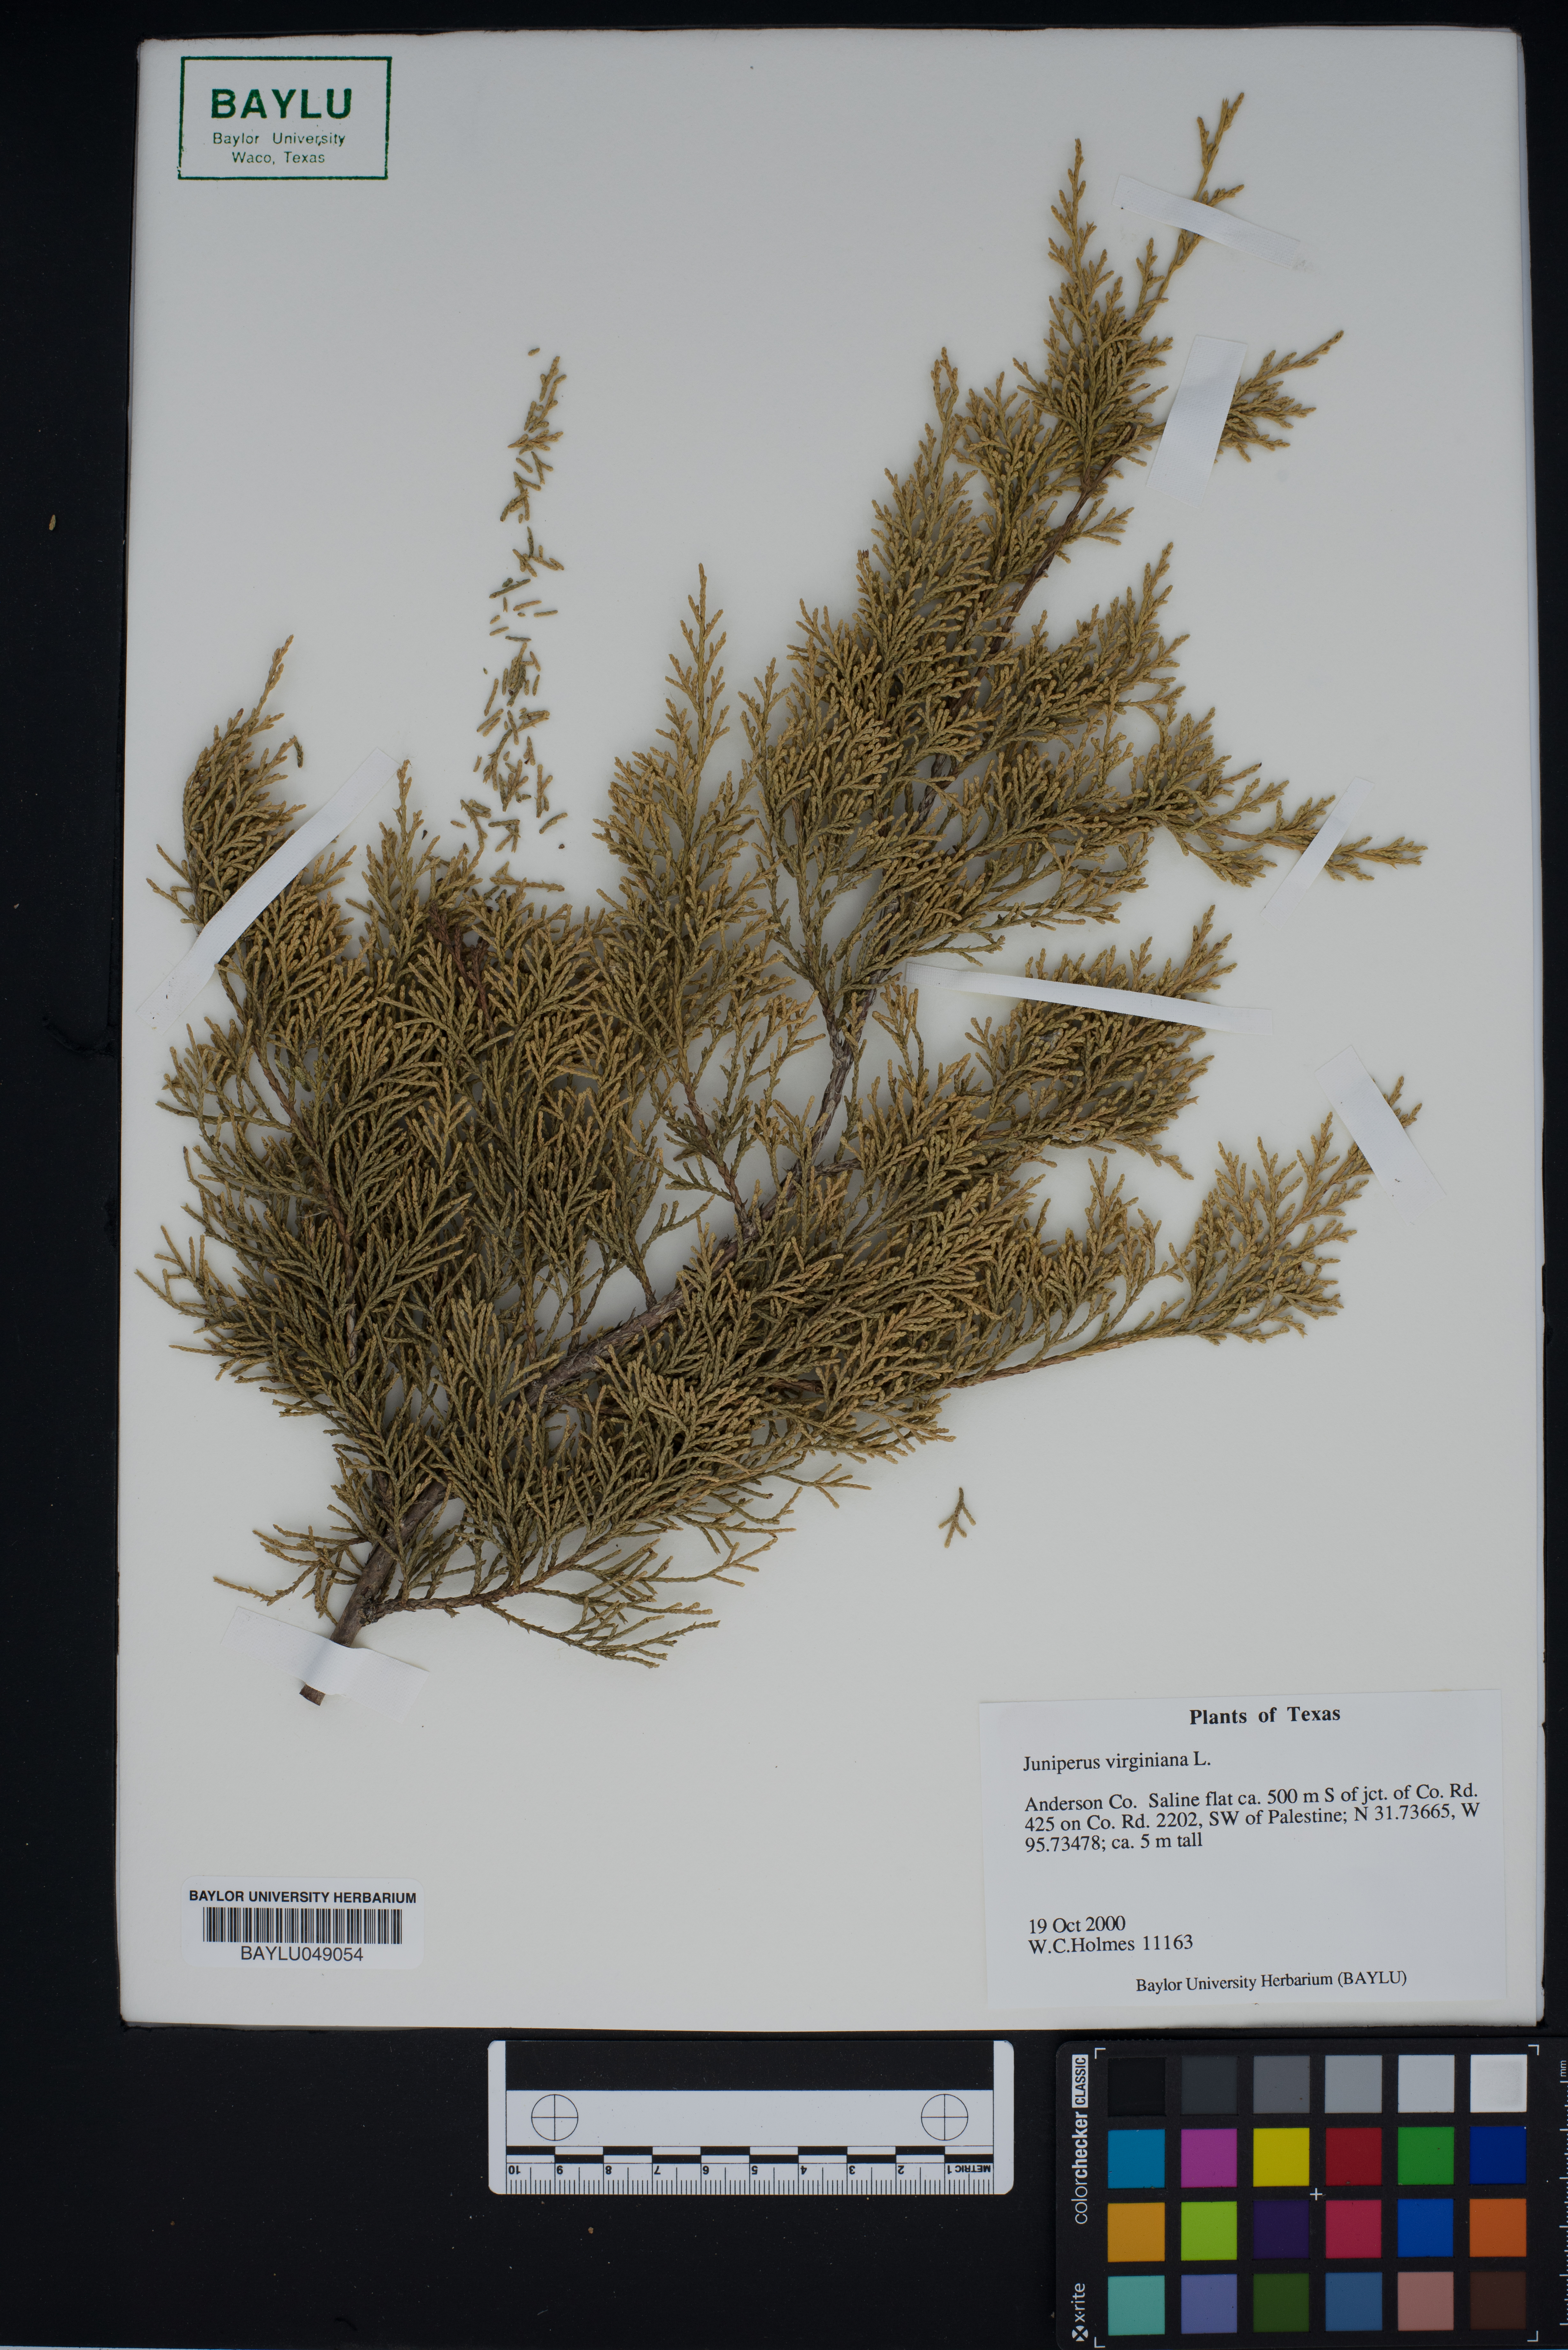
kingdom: Plantae
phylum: Tracheophyta
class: Pinopsida
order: Pinales
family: Cupressaceae
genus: Juniperus
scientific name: Juniperus virginiana
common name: Red juniper
